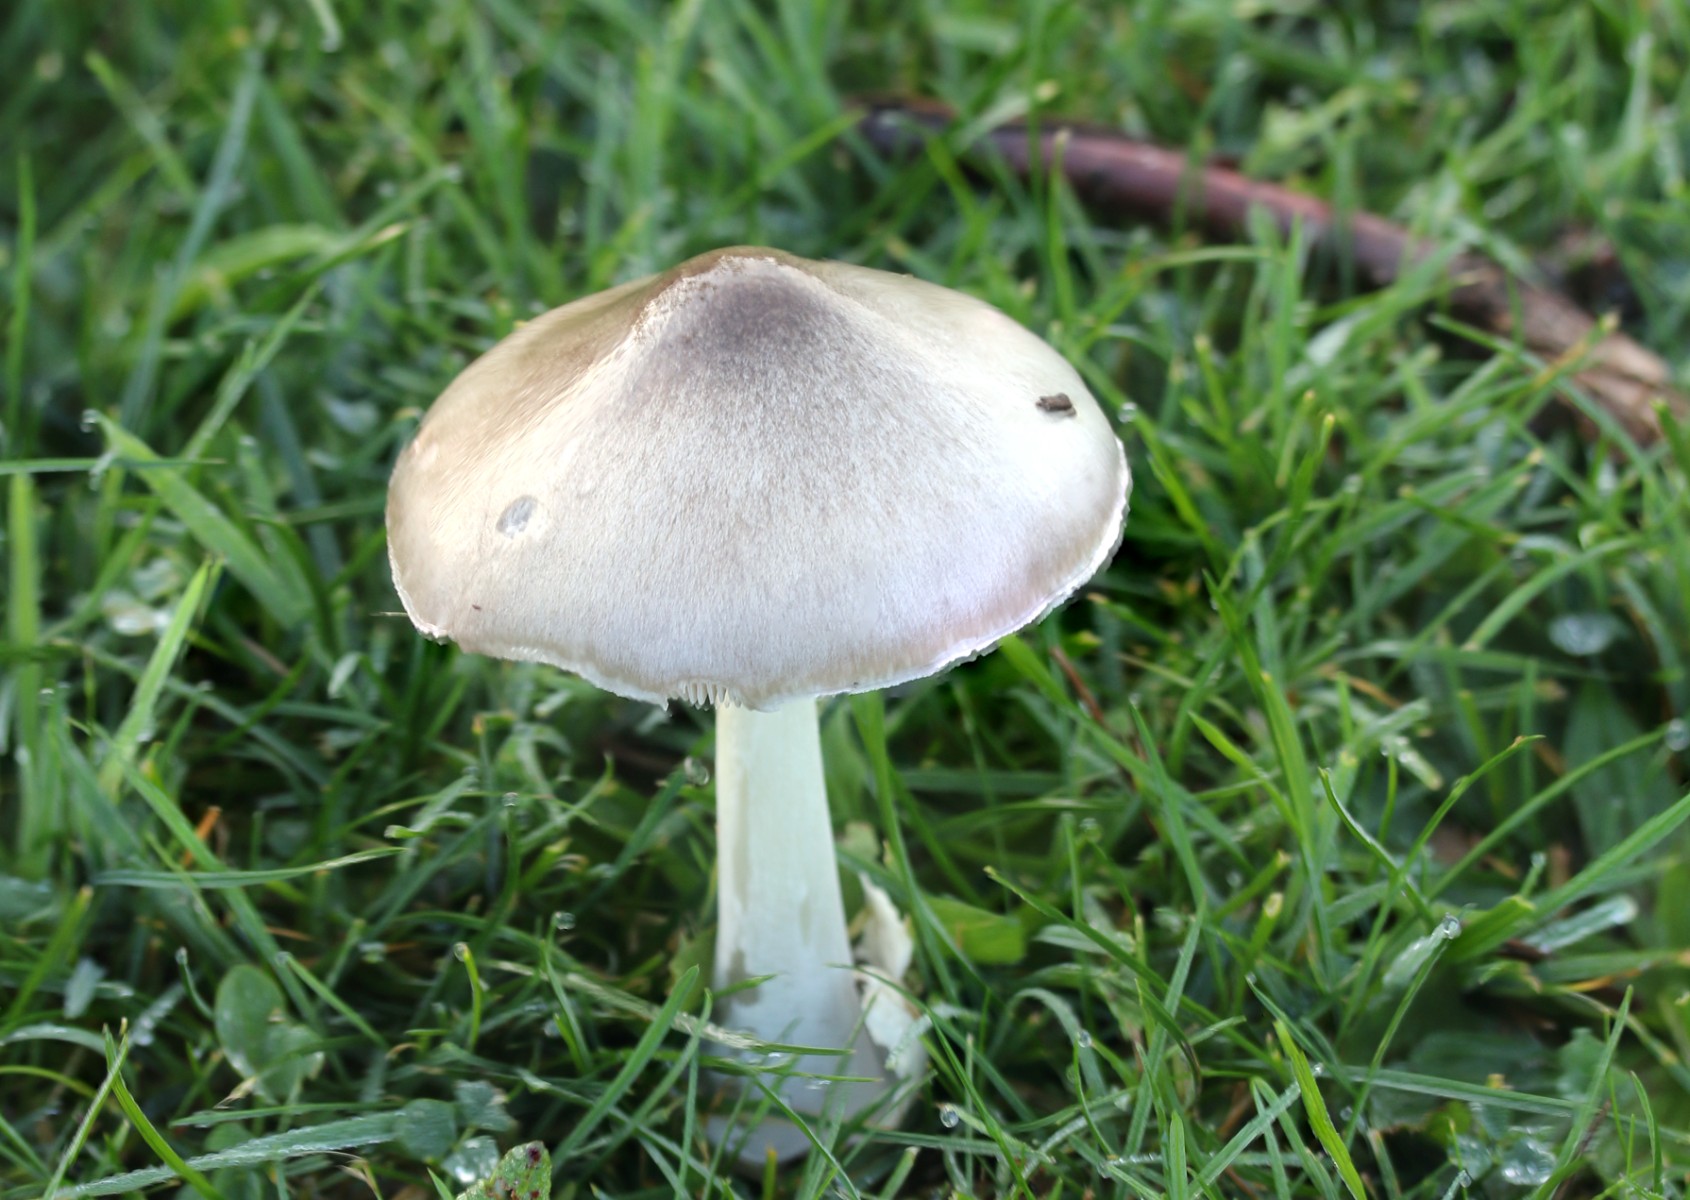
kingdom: Fungi
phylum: Basidiomycota
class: Agaricomycetes
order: Agaricales
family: Pluteaceae
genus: Volvopluteus
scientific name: Volvopluteus gloiocephalus
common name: høj posesvamp
